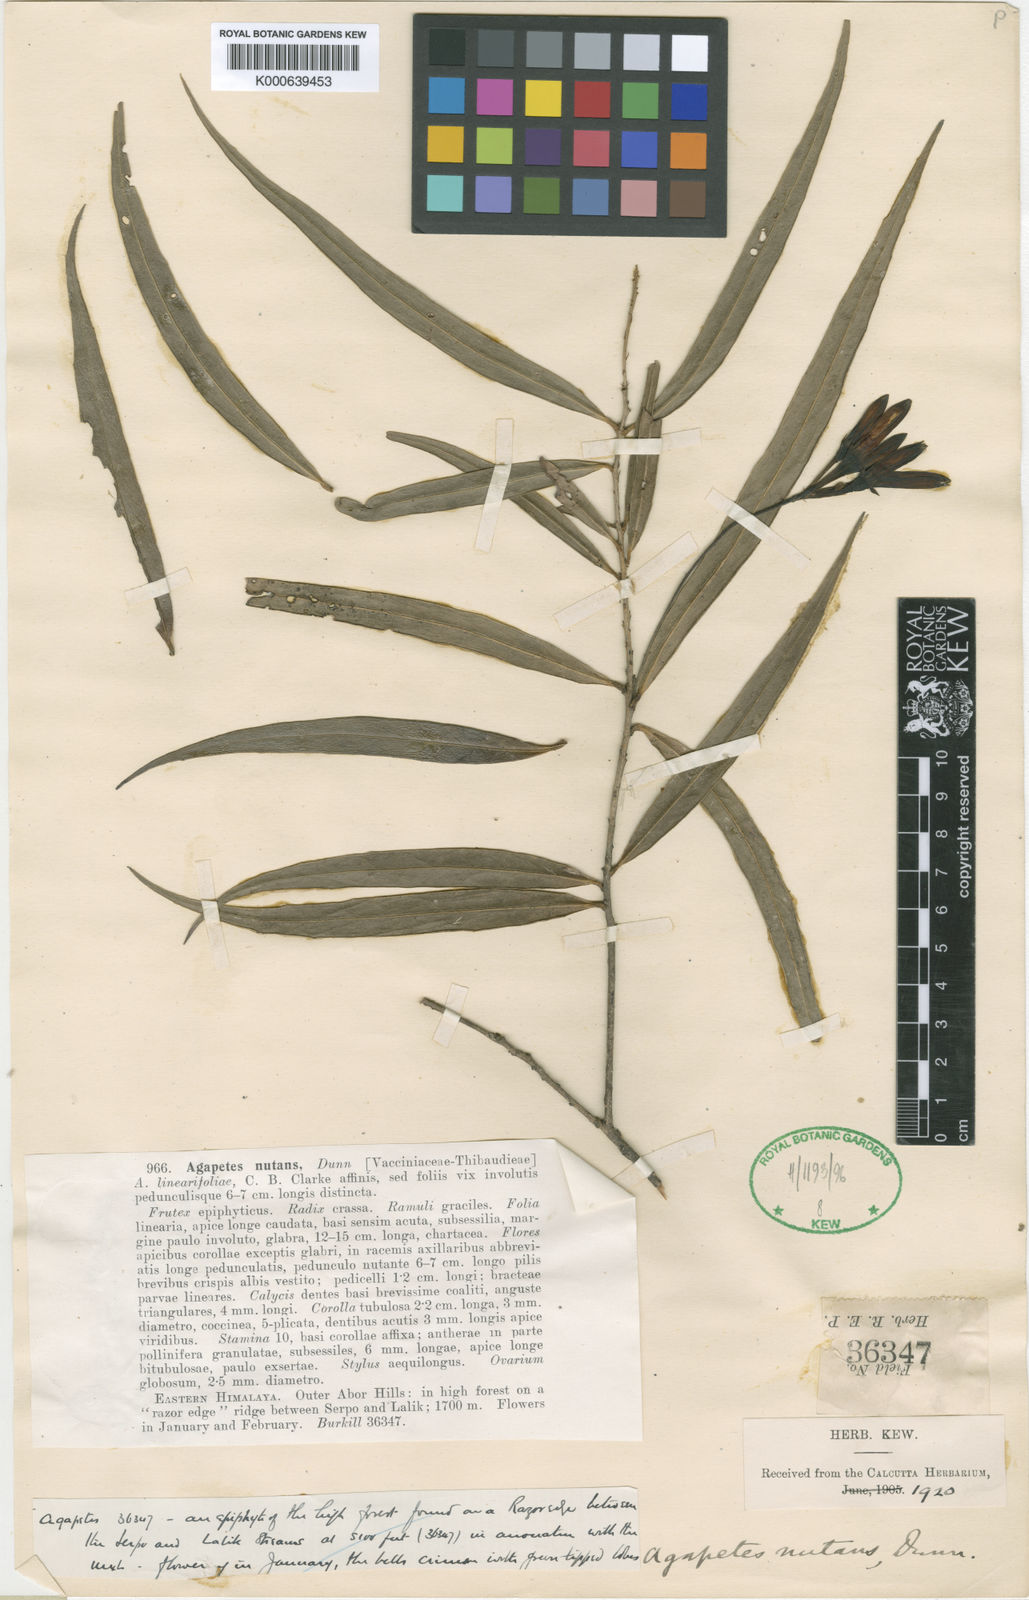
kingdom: Plantae
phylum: Tracheophyta
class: Magnoliopsida
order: Ericales
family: Ericaceae
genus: Agapetes
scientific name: Agapetes nutans
